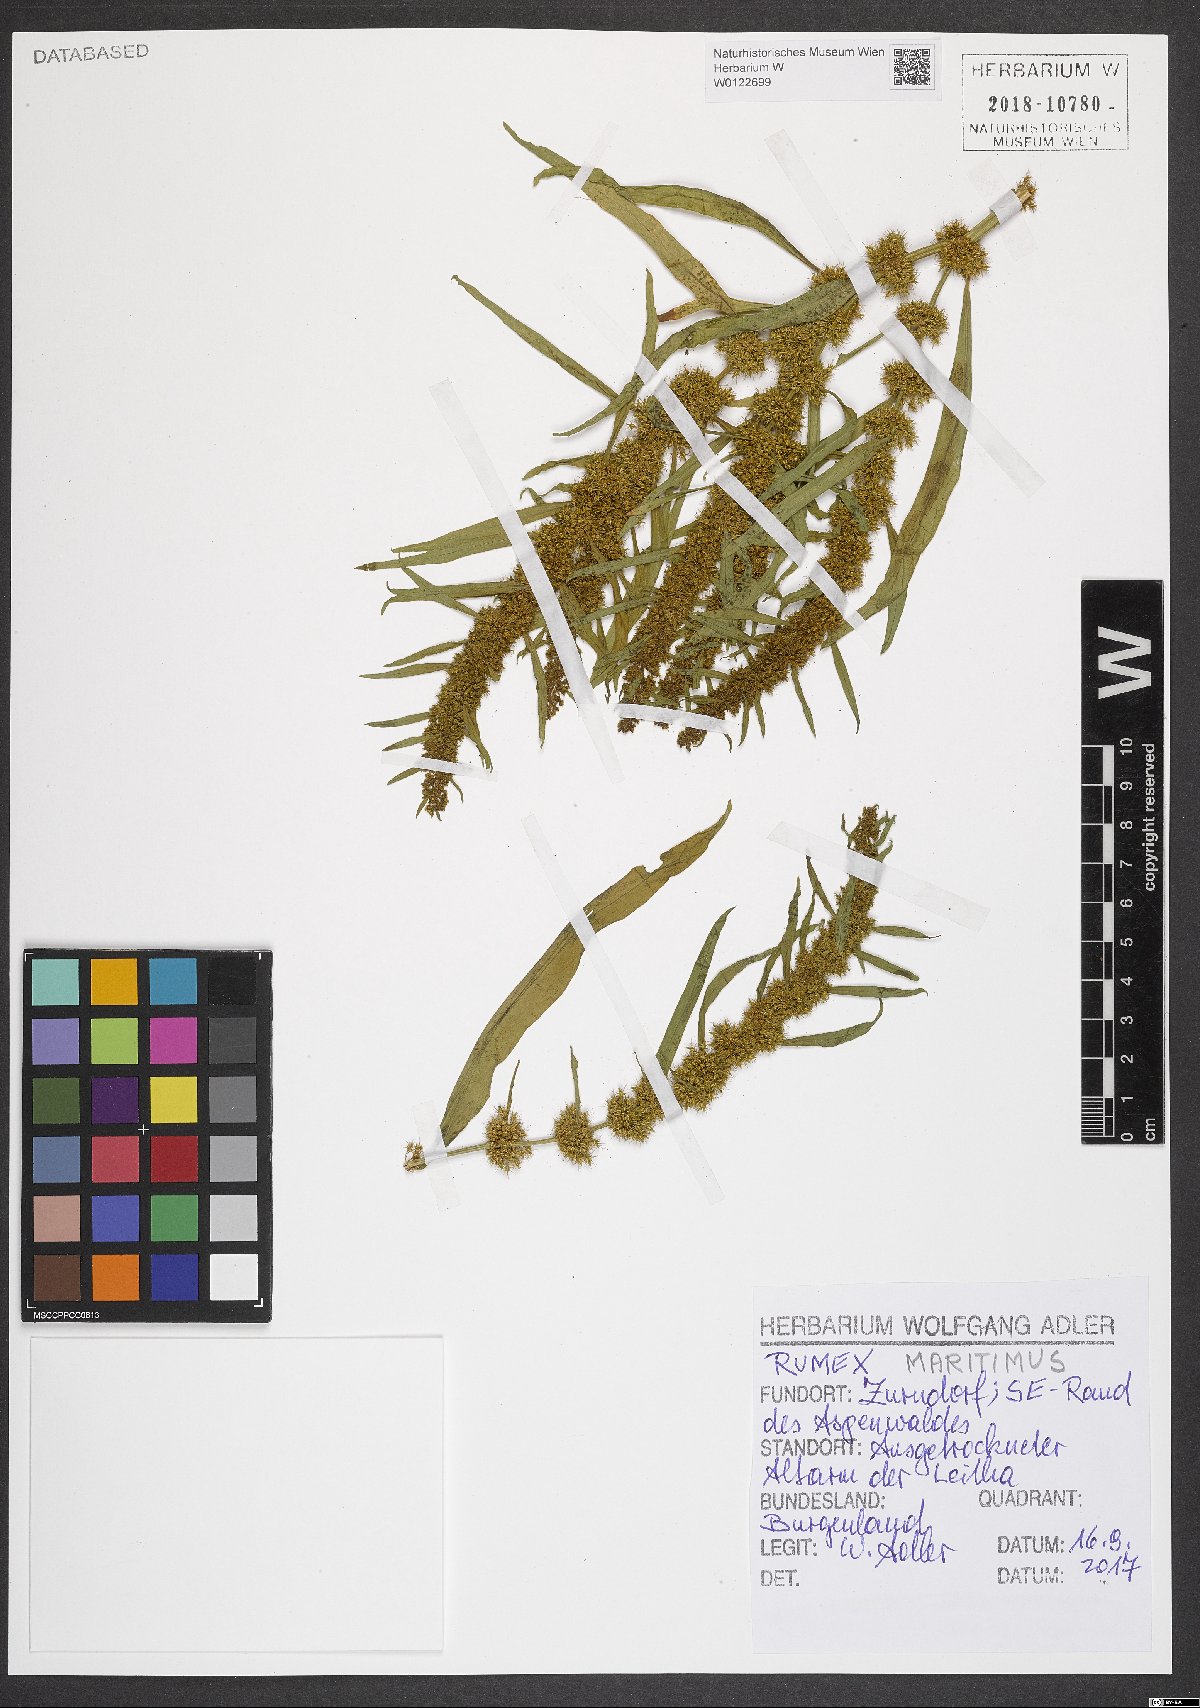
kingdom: Plantae
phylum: Tracheophyta
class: Magnoliopsida
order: Caryophyllales
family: Polygonaceae
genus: Rumex
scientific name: Rumex maritimus
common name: Golden dock
